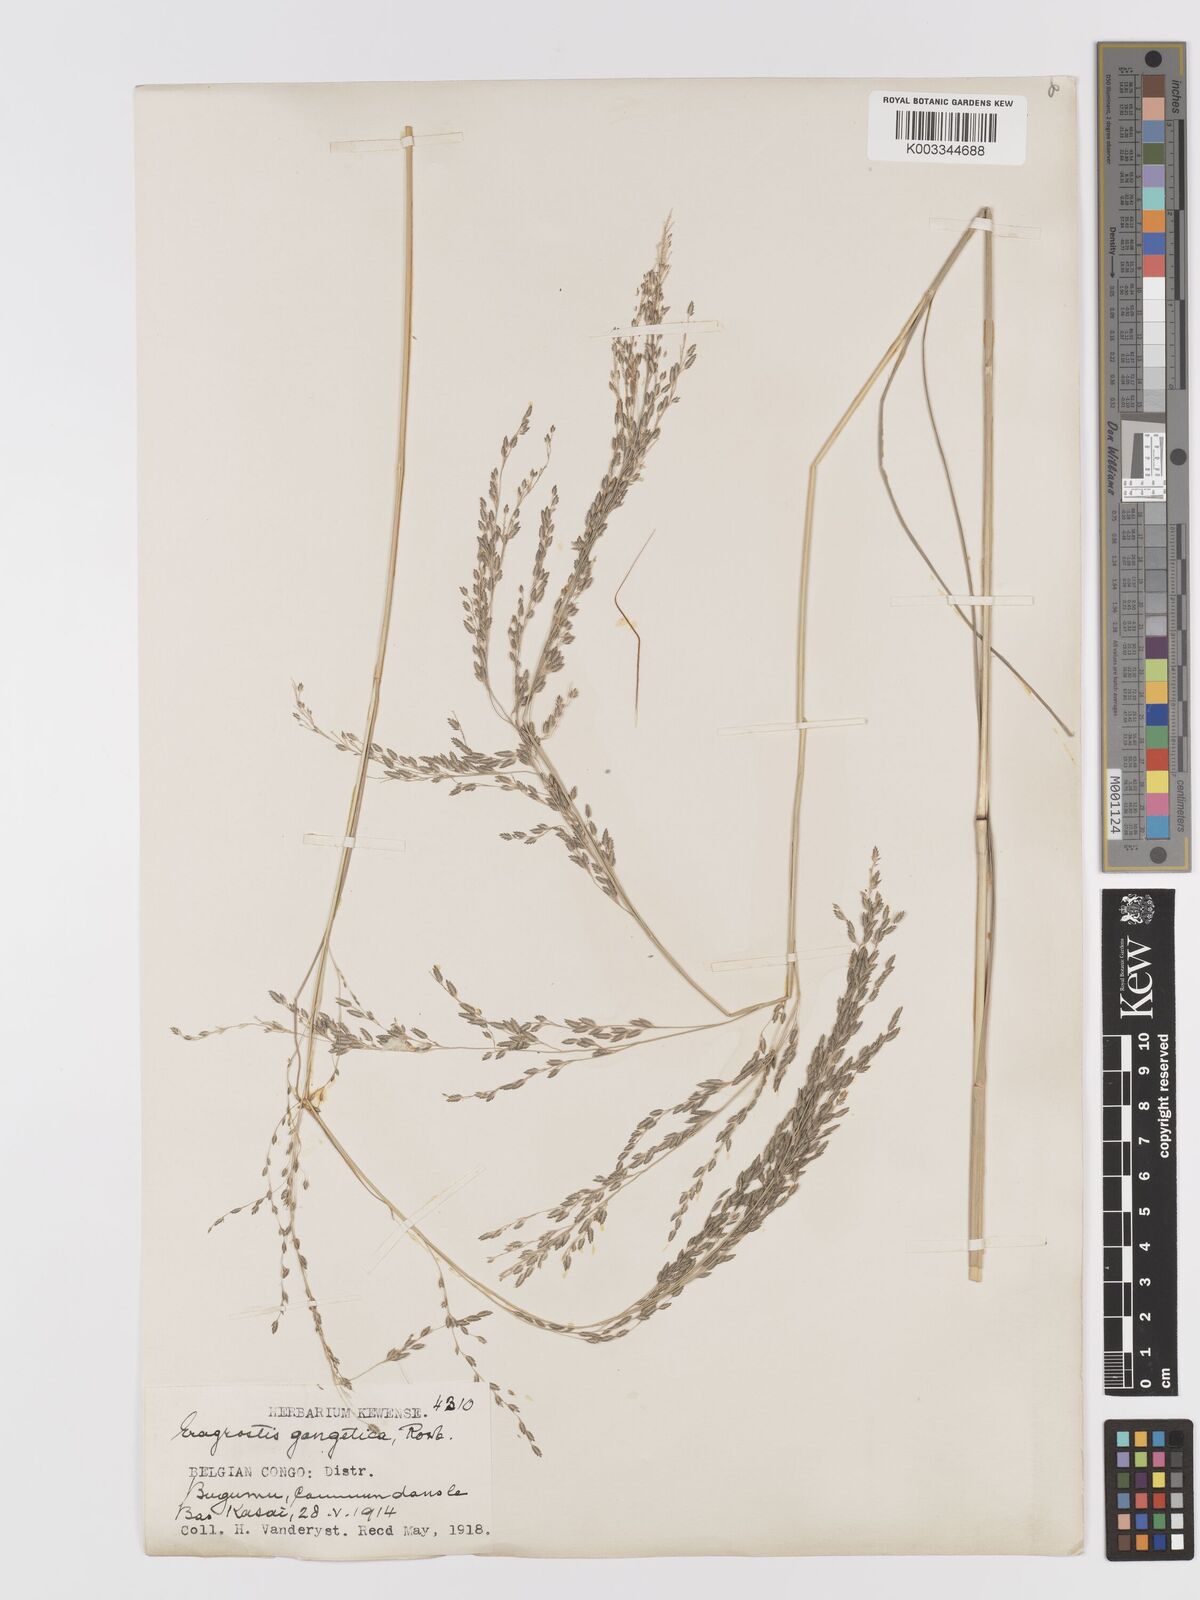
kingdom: Plantae
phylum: Tracheophyta
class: Liliopsida
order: Poales
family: Poaceae
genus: Eragrostis
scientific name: Eragrostis atrovirens
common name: Thalia lovegrass
